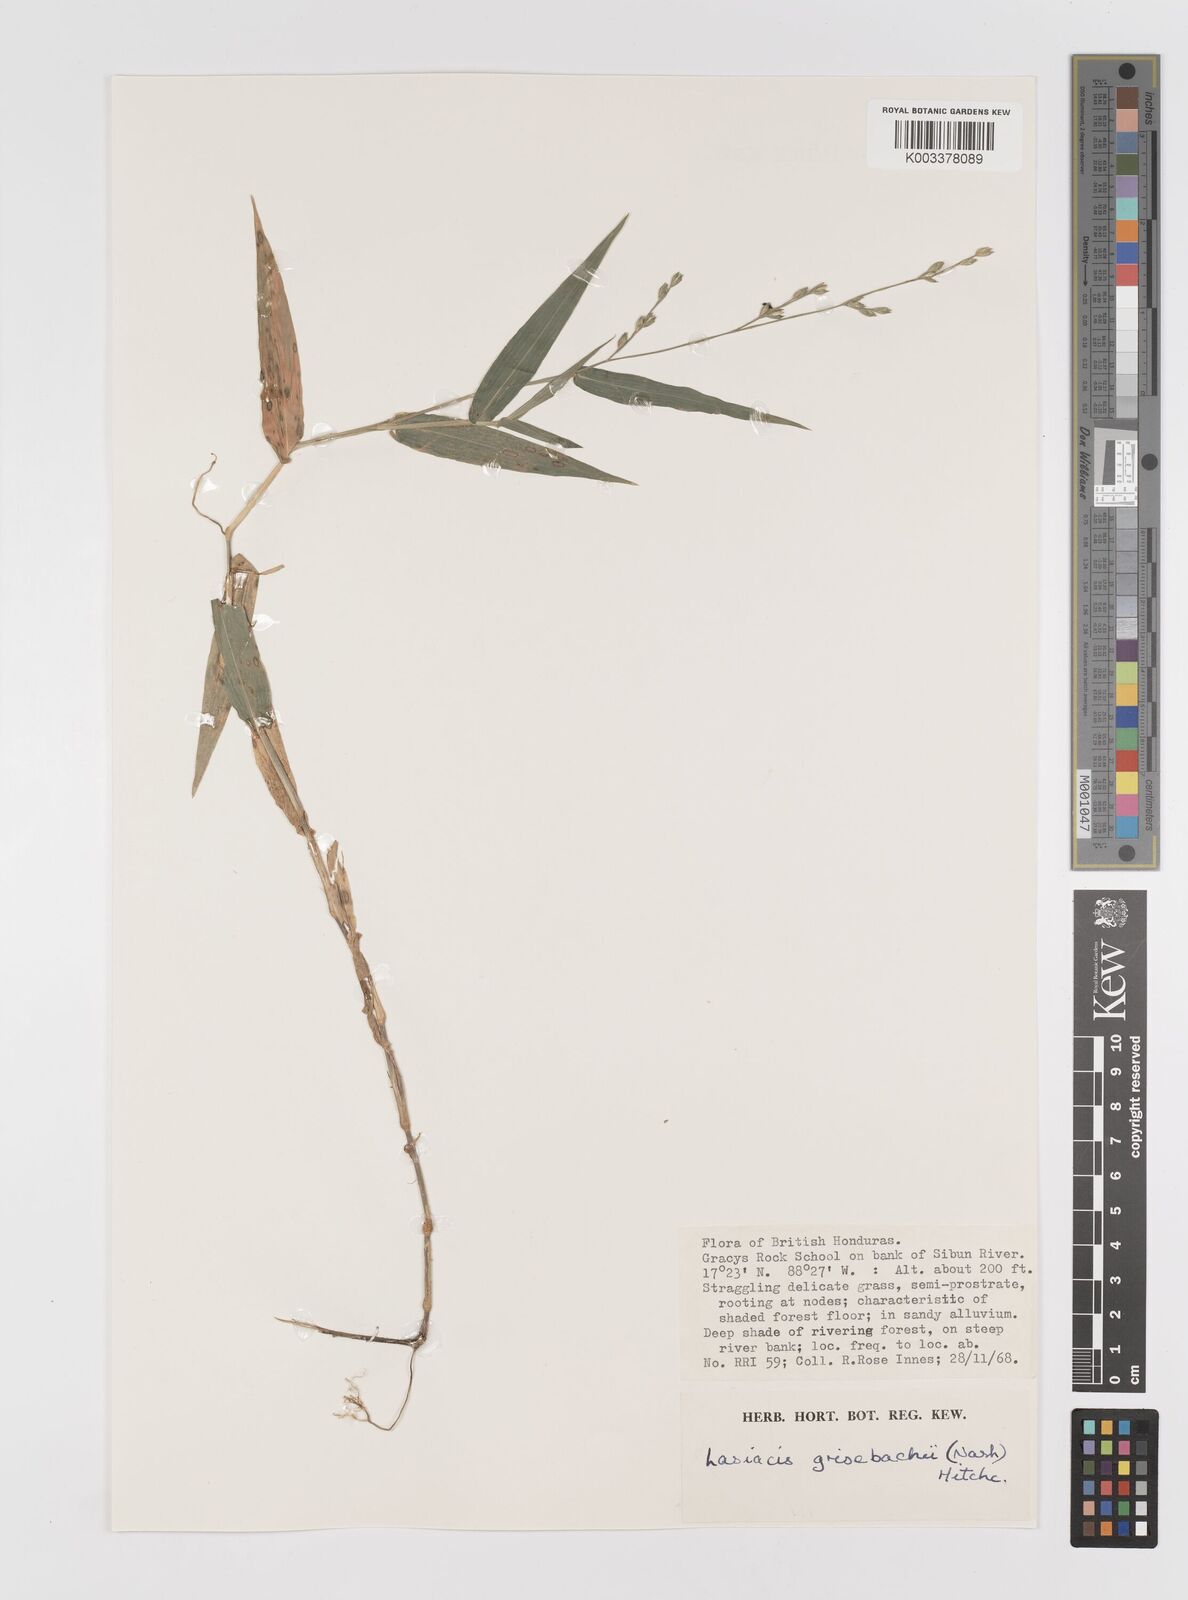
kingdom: Plantae
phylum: Tracheophyta
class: Liliopsida
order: Poales
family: Poaceae
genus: Lasiacis
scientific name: Lasiacis grisebachii
